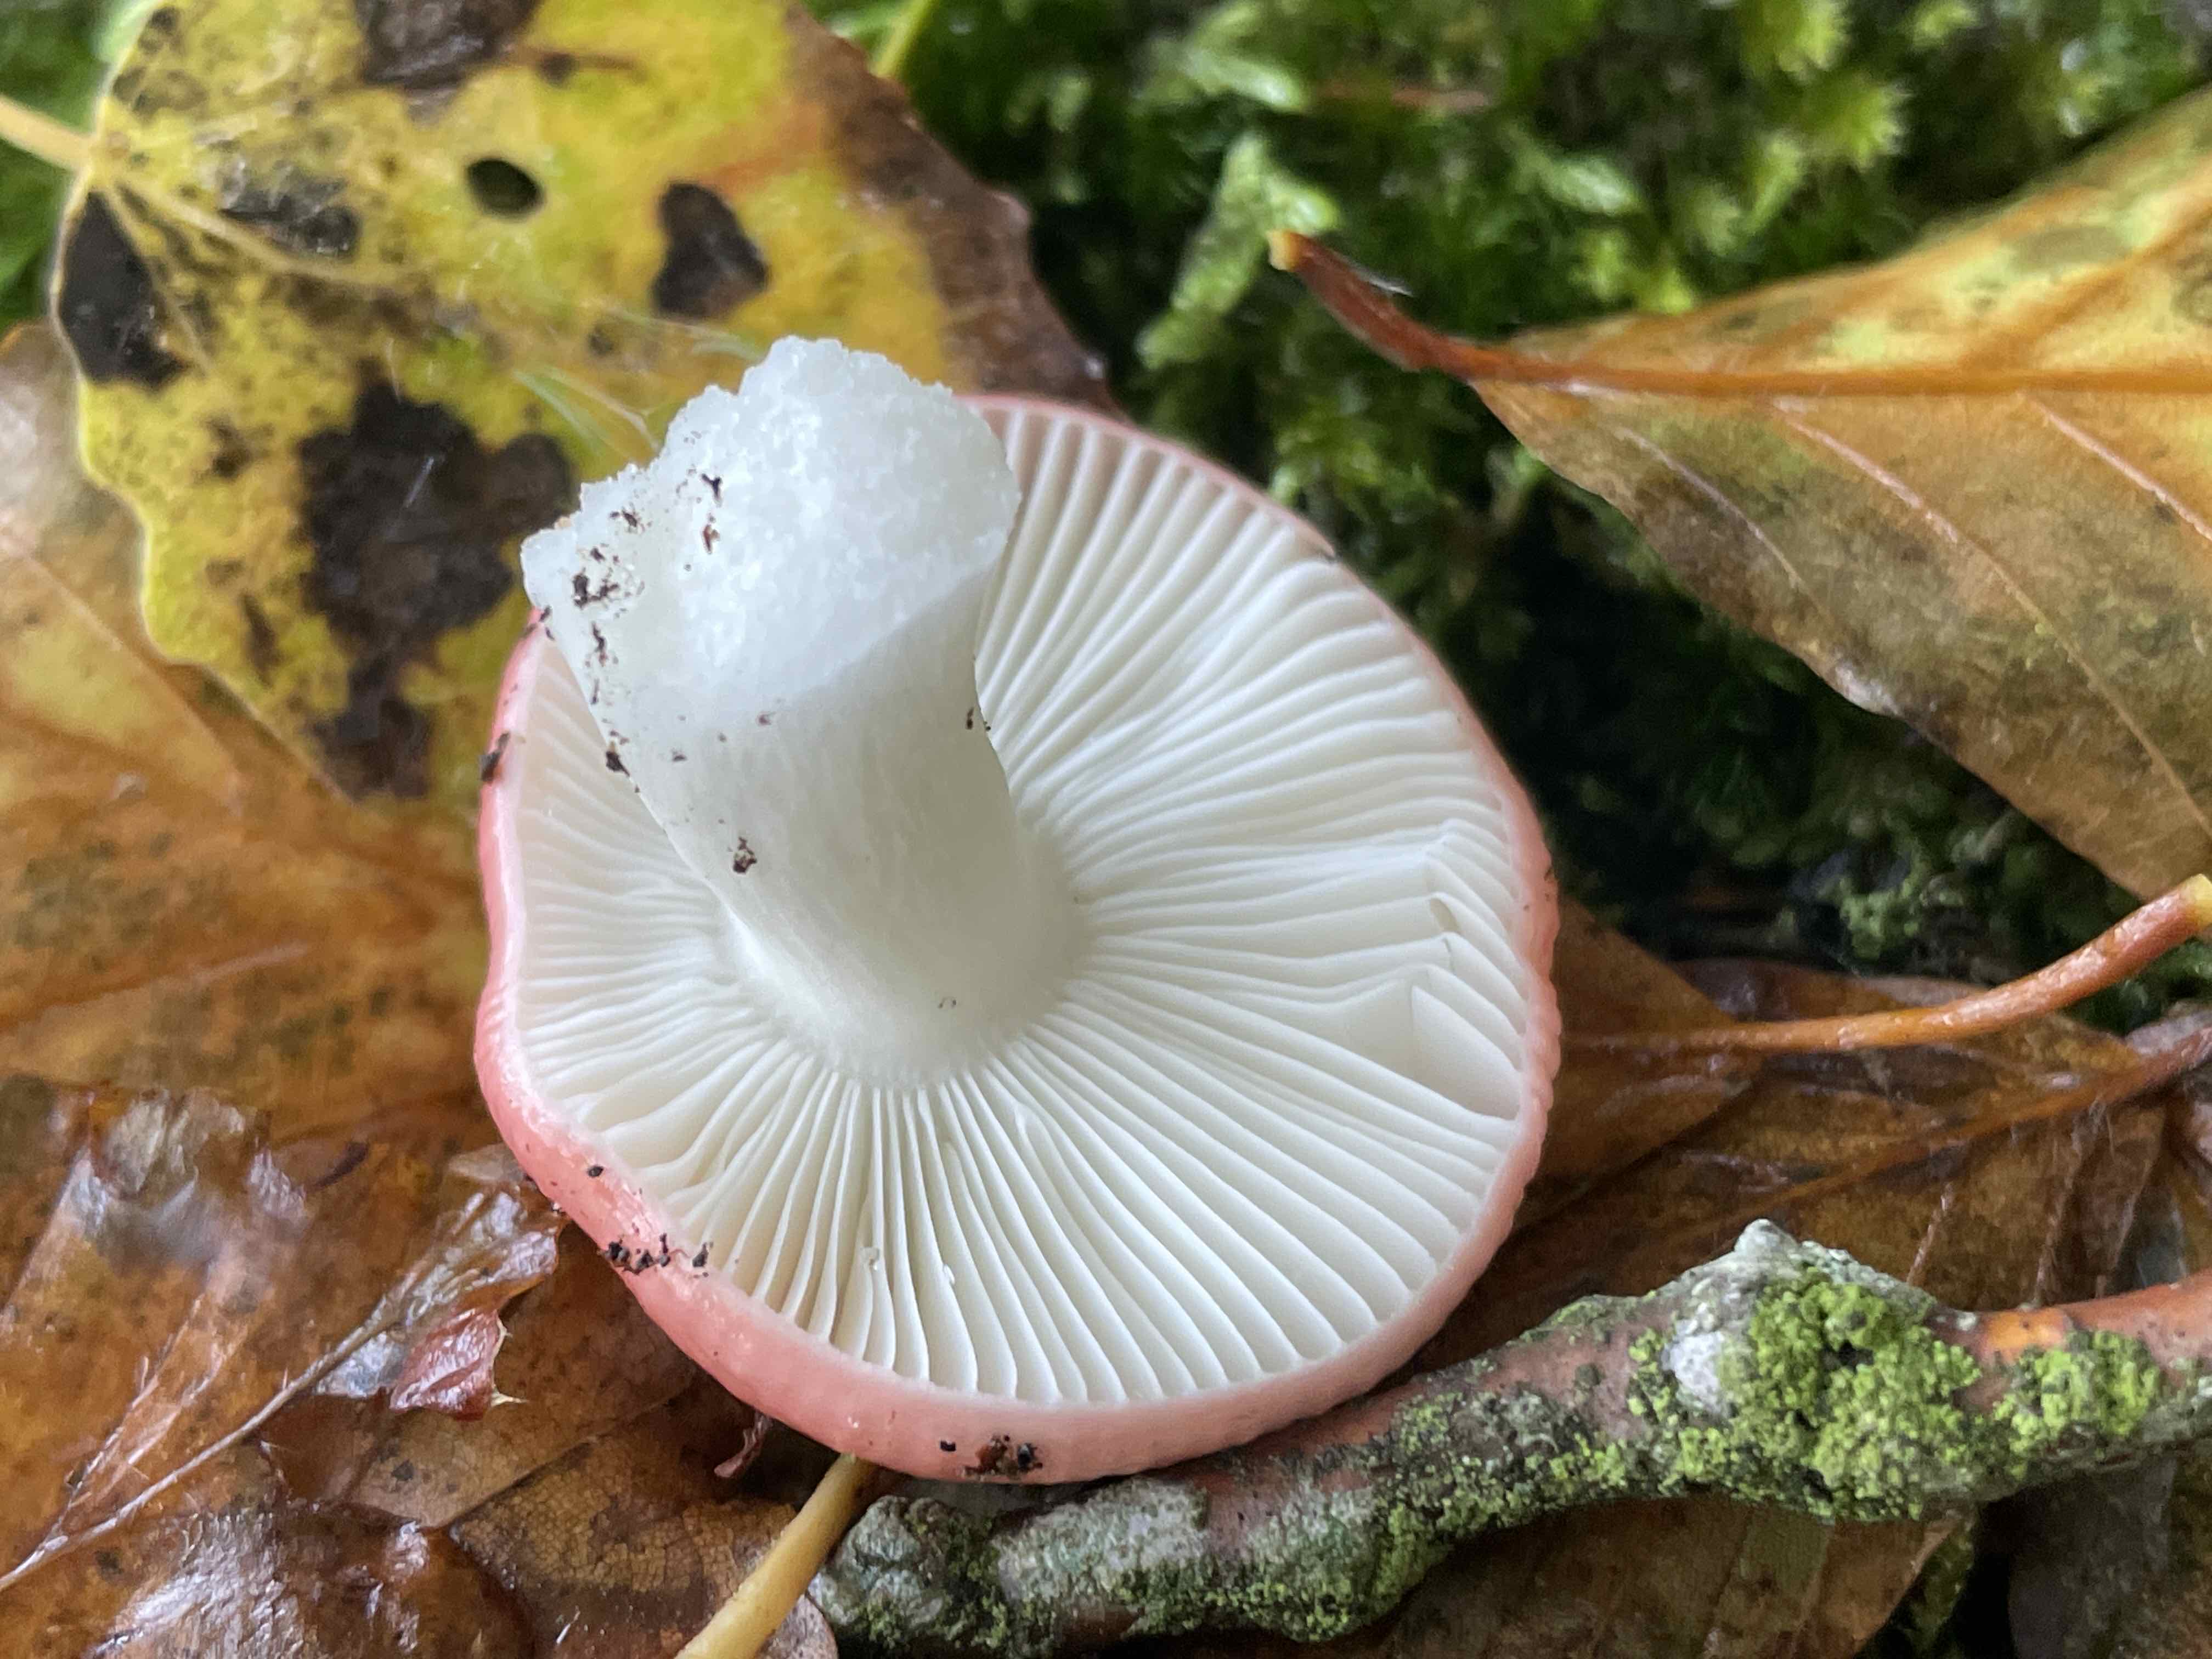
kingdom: Fungi
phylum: Basidiomycota
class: Agaricomycetes
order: Russulales
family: Russulaceae
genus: Russula
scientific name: Russula nobilis
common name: lille gift-skørhat
